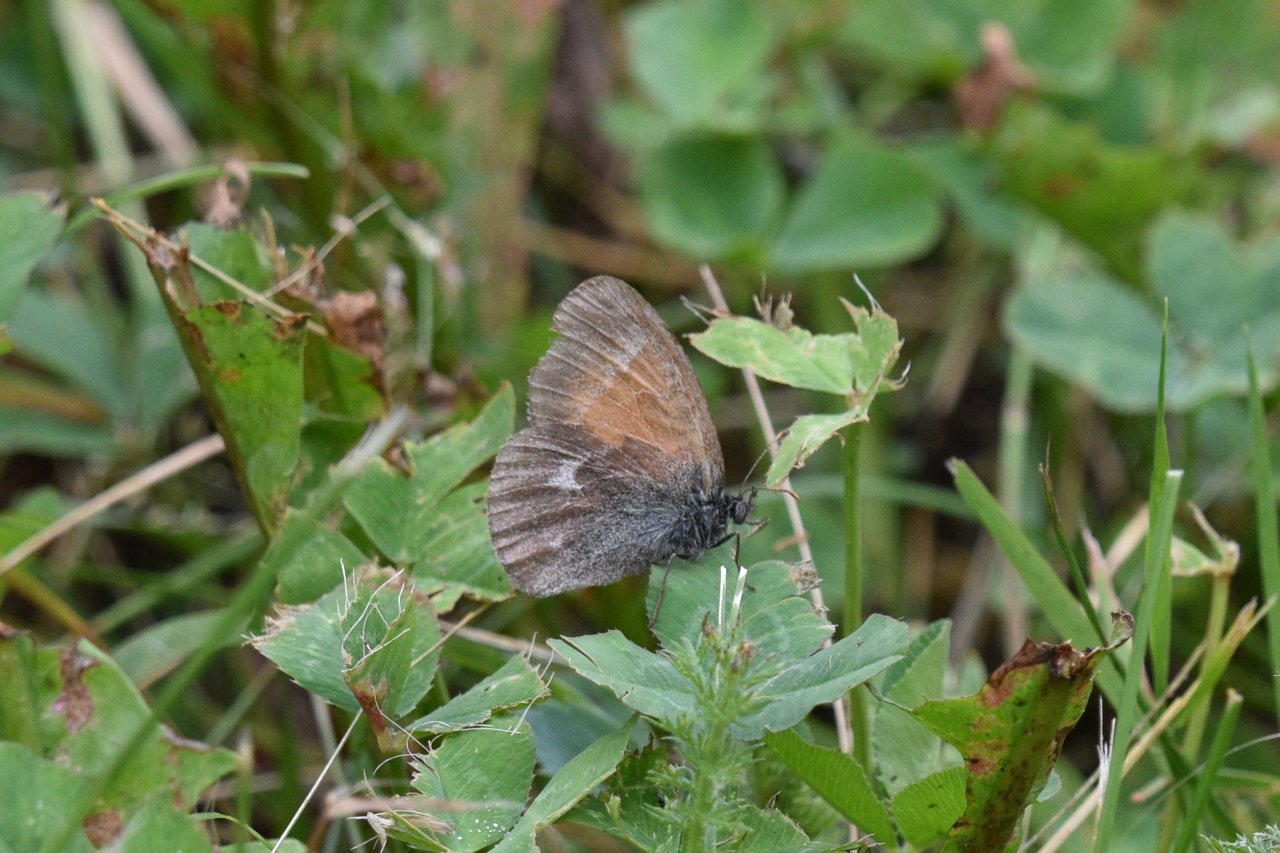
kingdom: Animalia
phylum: Arthropoda
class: Insecta
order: Lepidoptera
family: Nymphalidae
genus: Coenonympha
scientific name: Coenonympha tullia
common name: Large Heath
